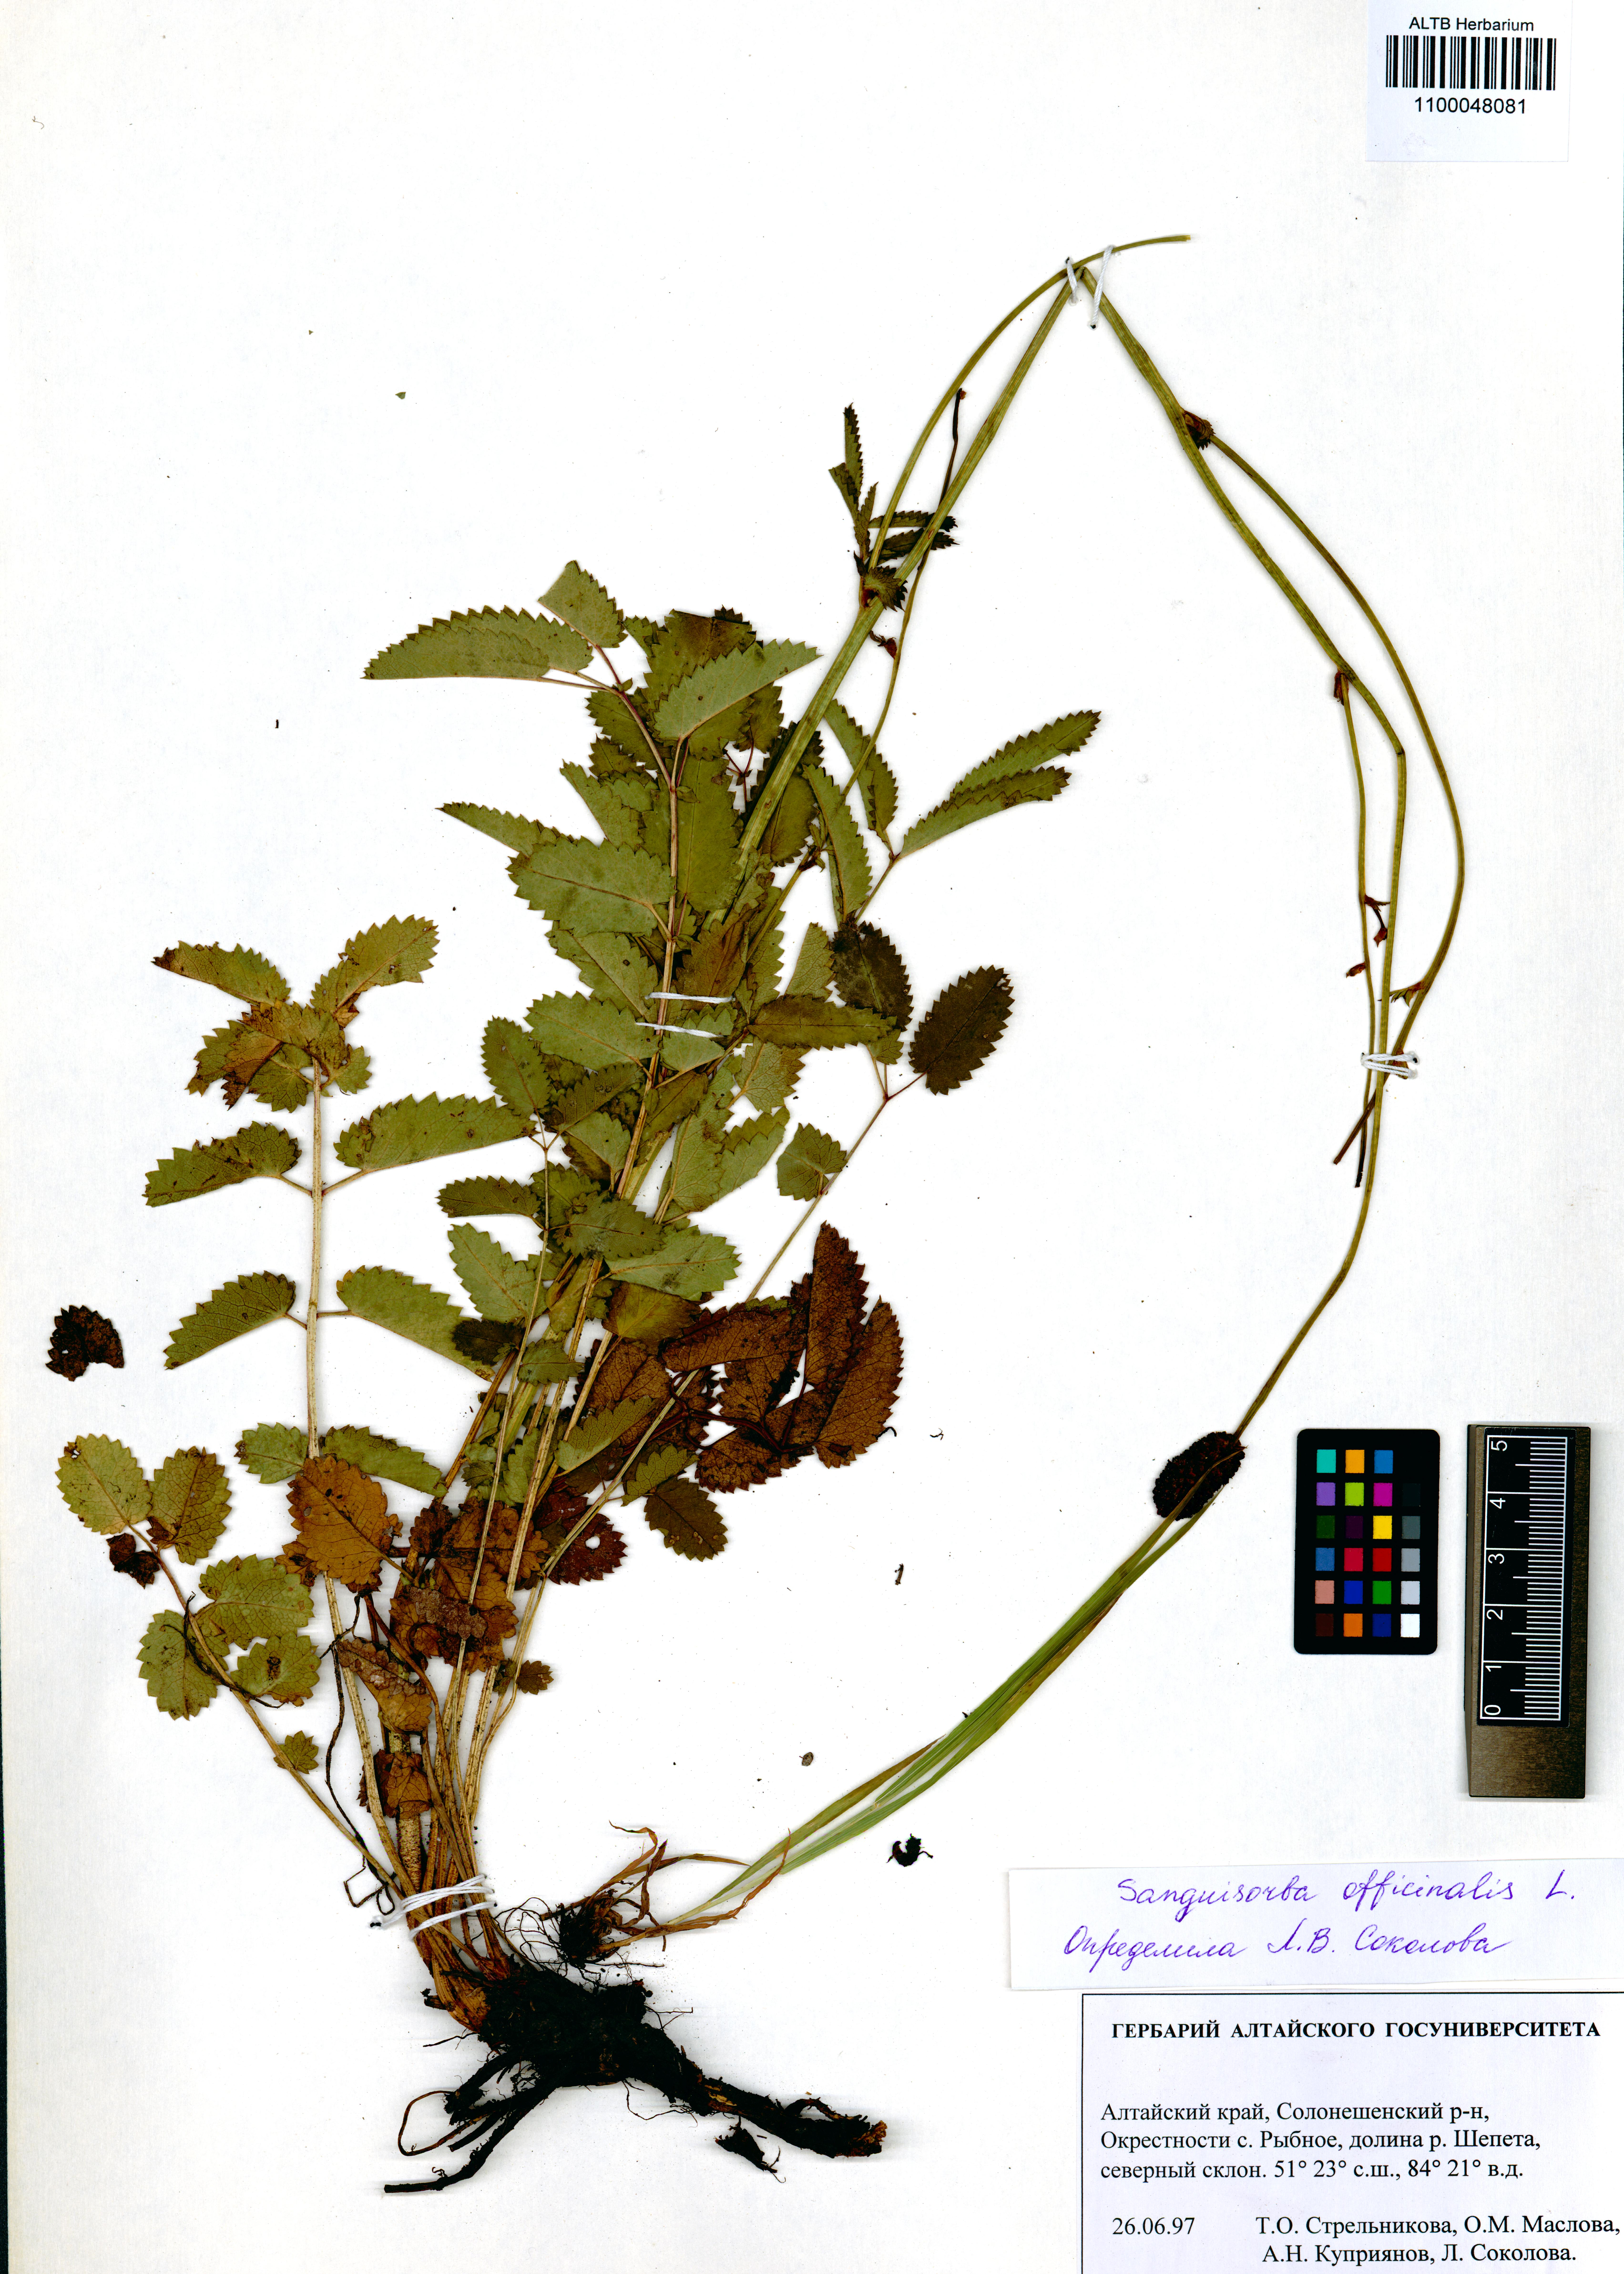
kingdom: Plantae
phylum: Tracheophyta
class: Magnoliopsida
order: Rosales
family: Rosaceae
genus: Sanguisorba
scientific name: Sanguisorba officinalis
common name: Great burnet
